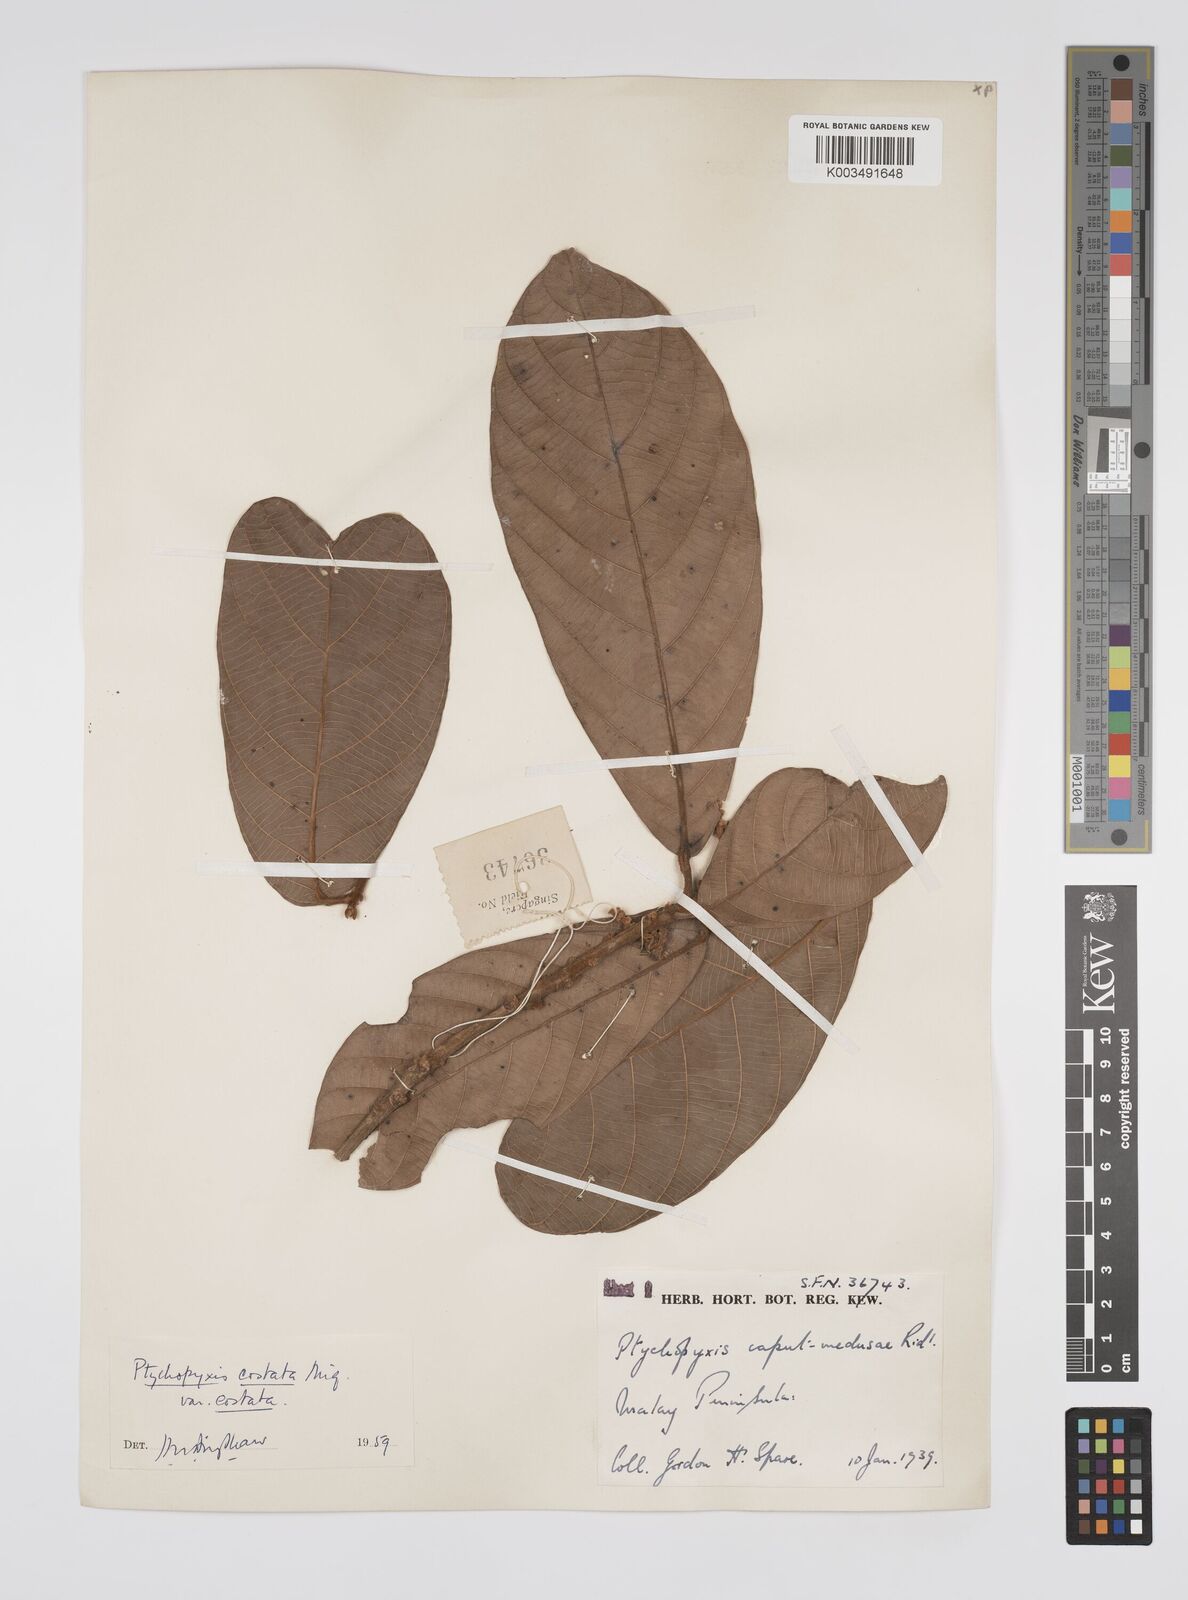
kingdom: Plantae
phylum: Tracheophyta
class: Magnoliopsida
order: Malpighiales
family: Euphorbiaceae
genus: Ptychopyxis
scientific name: Ptychopyxis costata
